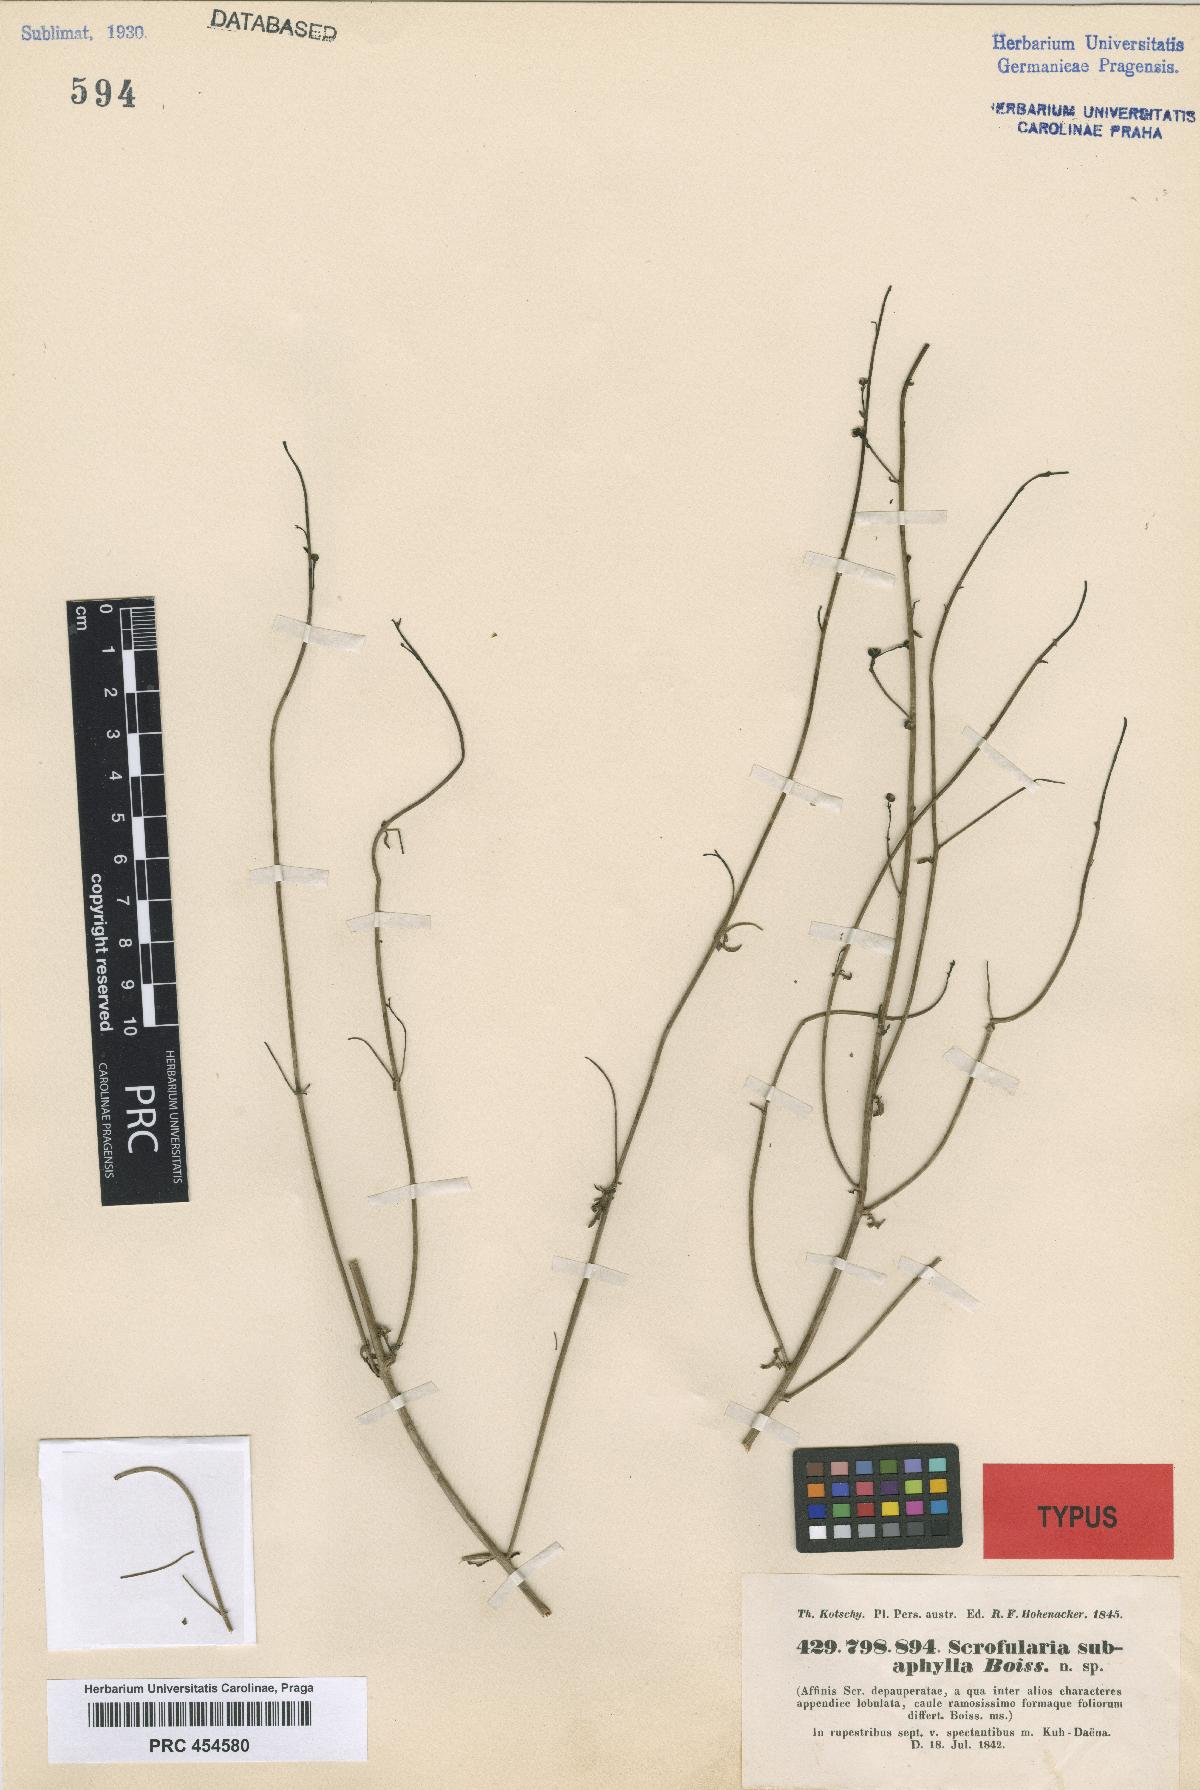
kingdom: Plantae
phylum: Tracheophyta
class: Magnoliopsida
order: Lamiales
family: Scrophulariaceae
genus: Scrophularia
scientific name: Scrophularia subaphylla
